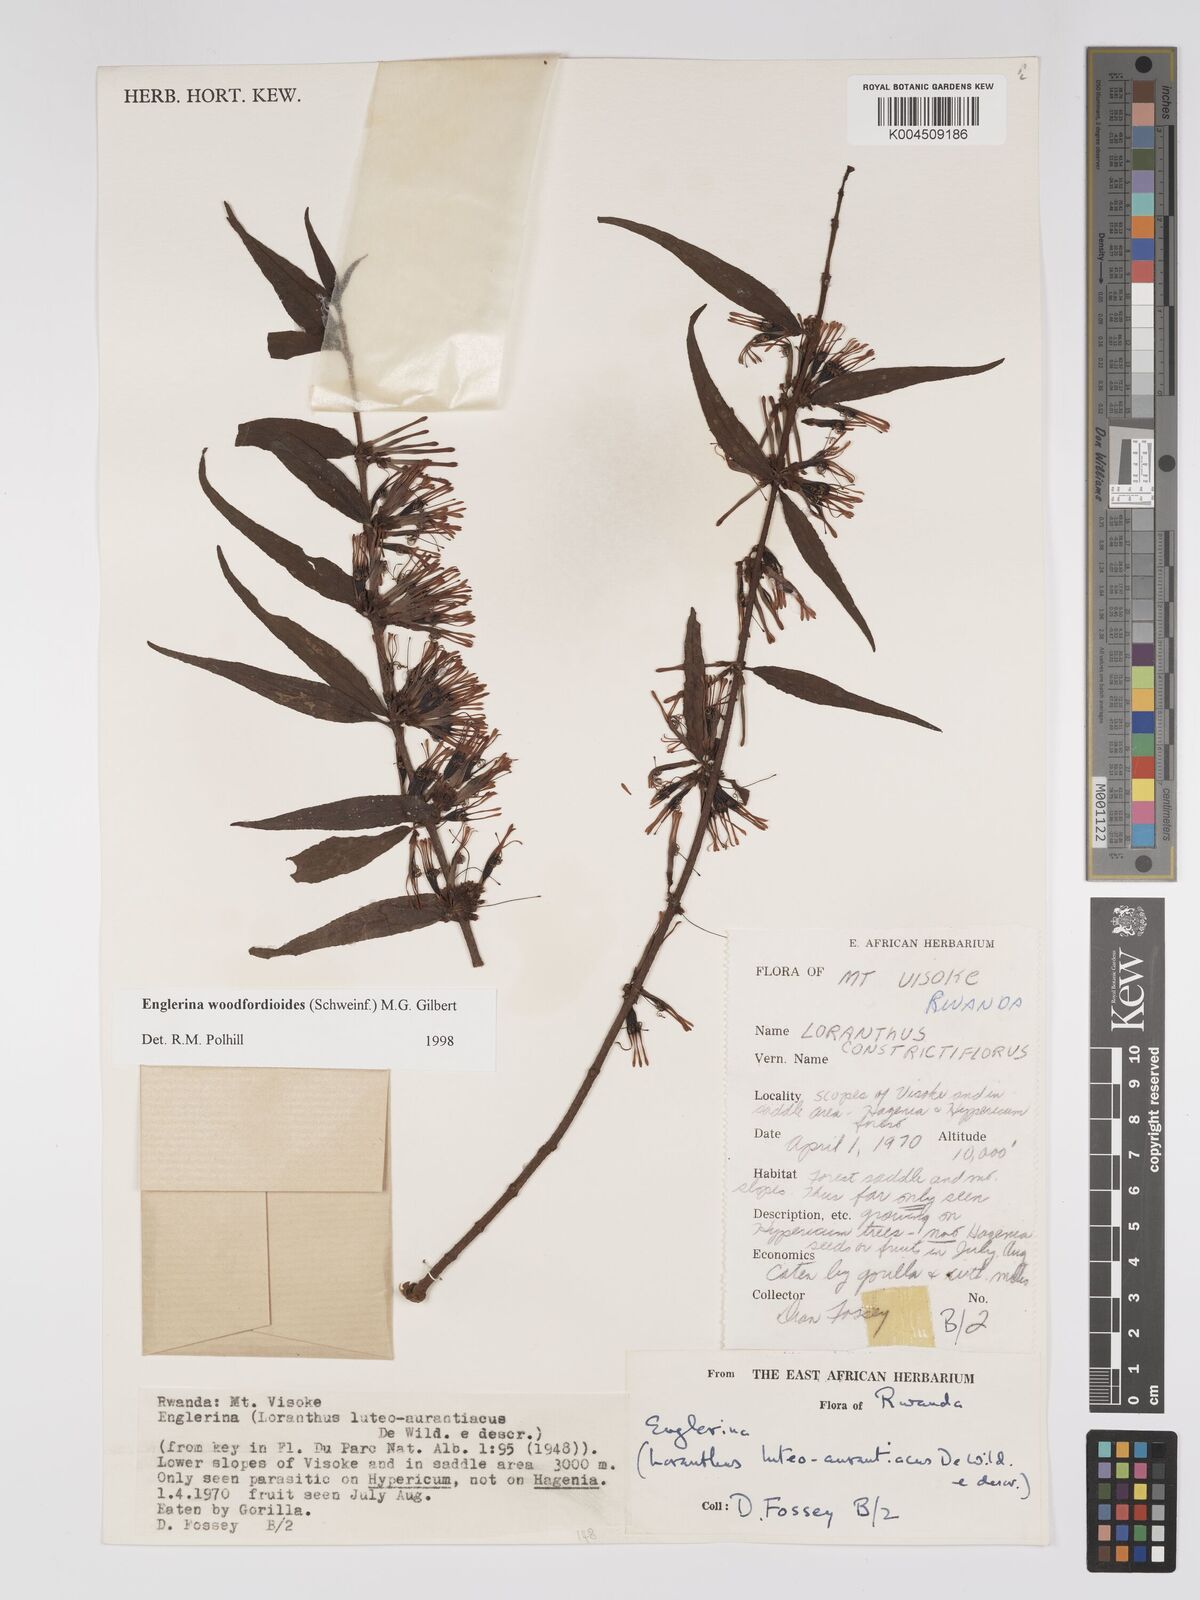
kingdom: Plantae
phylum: Tracheophyta
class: Magnoliopsida
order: Santalales
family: Loranthaceae
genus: Englerina
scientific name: Englerina woodfordioides
